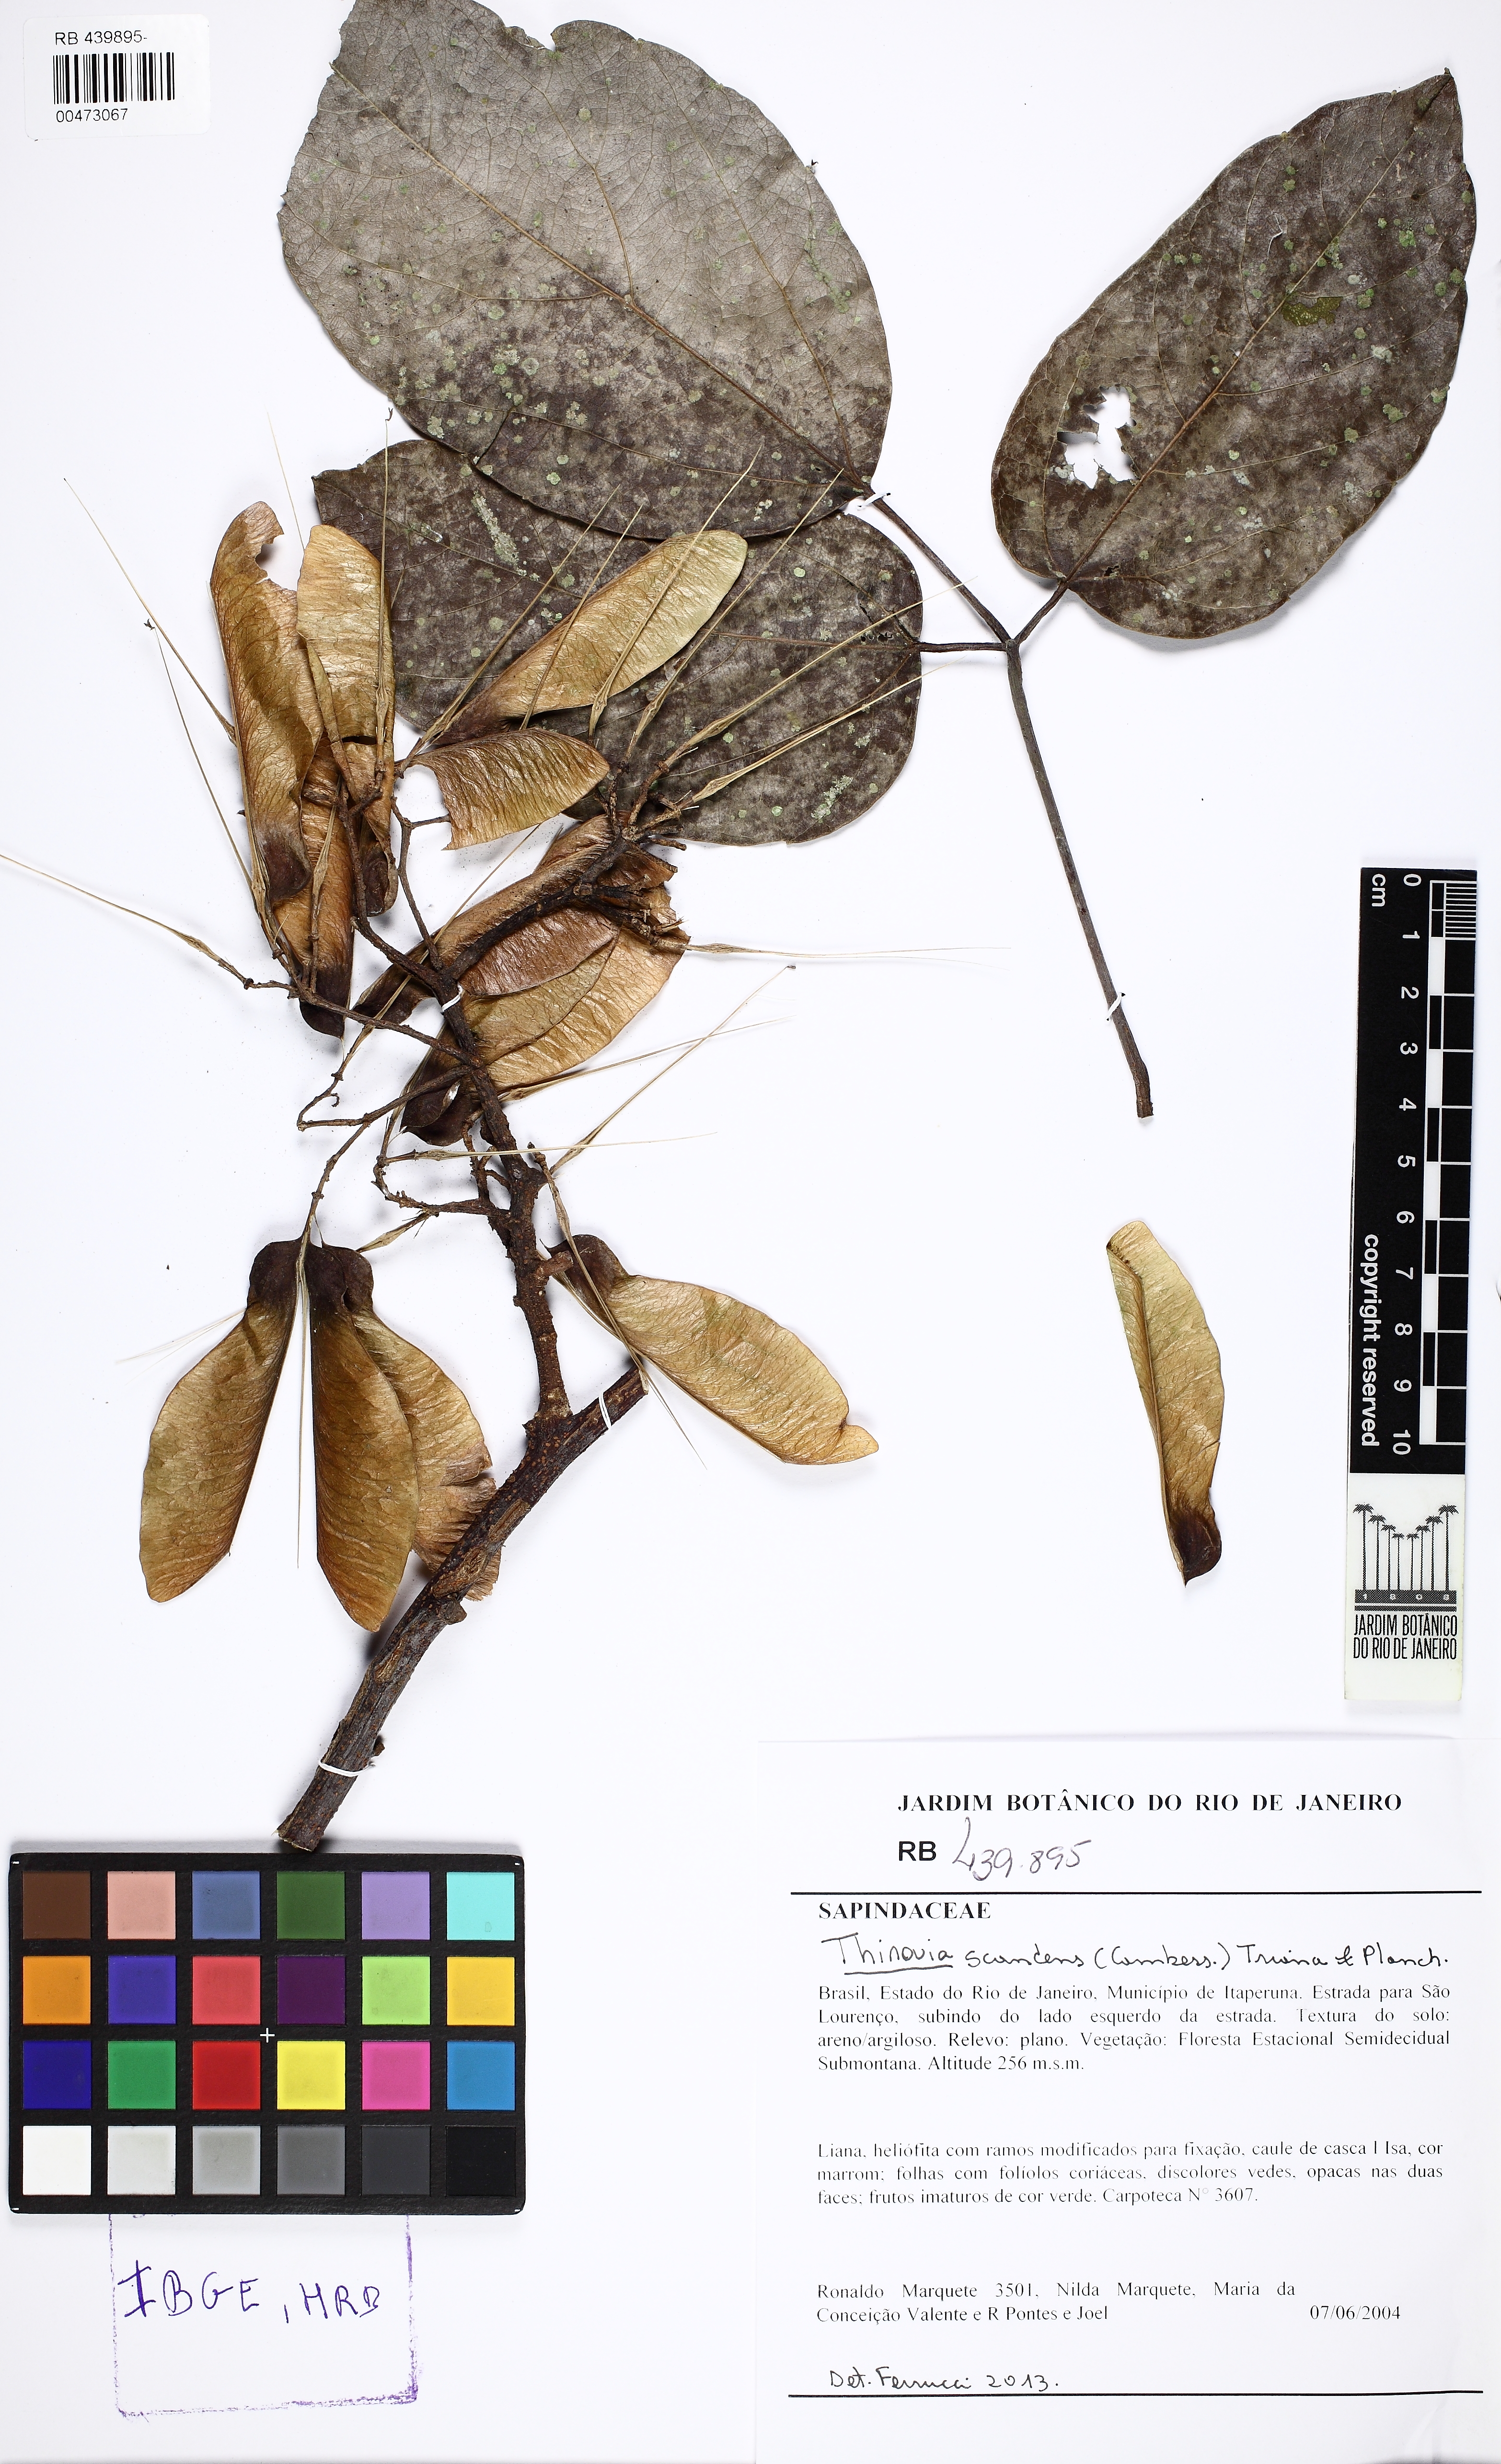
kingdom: Plantae
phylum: Tracheophyta
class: Magnoliopsida
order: Sapindales
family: Sapindaceae
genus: Thinouia
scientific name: Thinouia scandens
